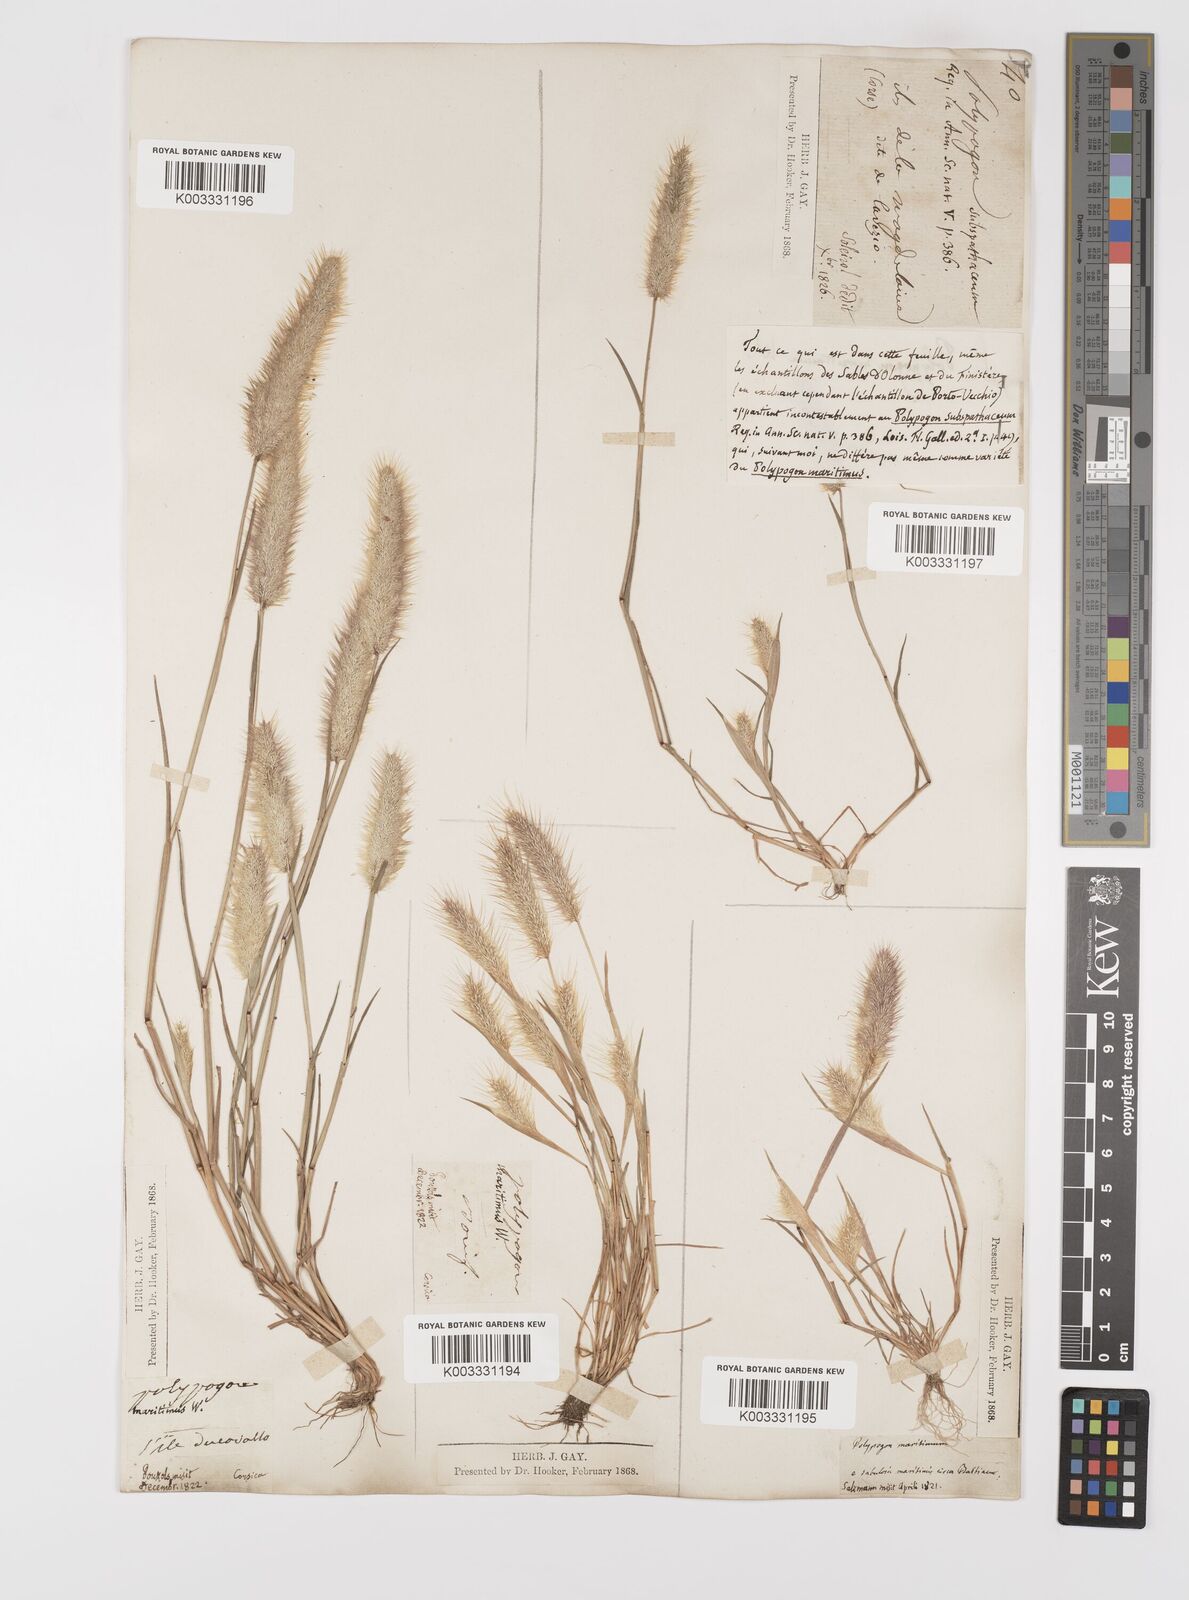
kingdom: Plantae
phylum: Tracheophyta
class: Liliopsida
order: Poales
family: Poaceae
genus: Polypogon
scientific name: Polypogon maritimus
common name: Mediterranean rabbitsfoot grass
